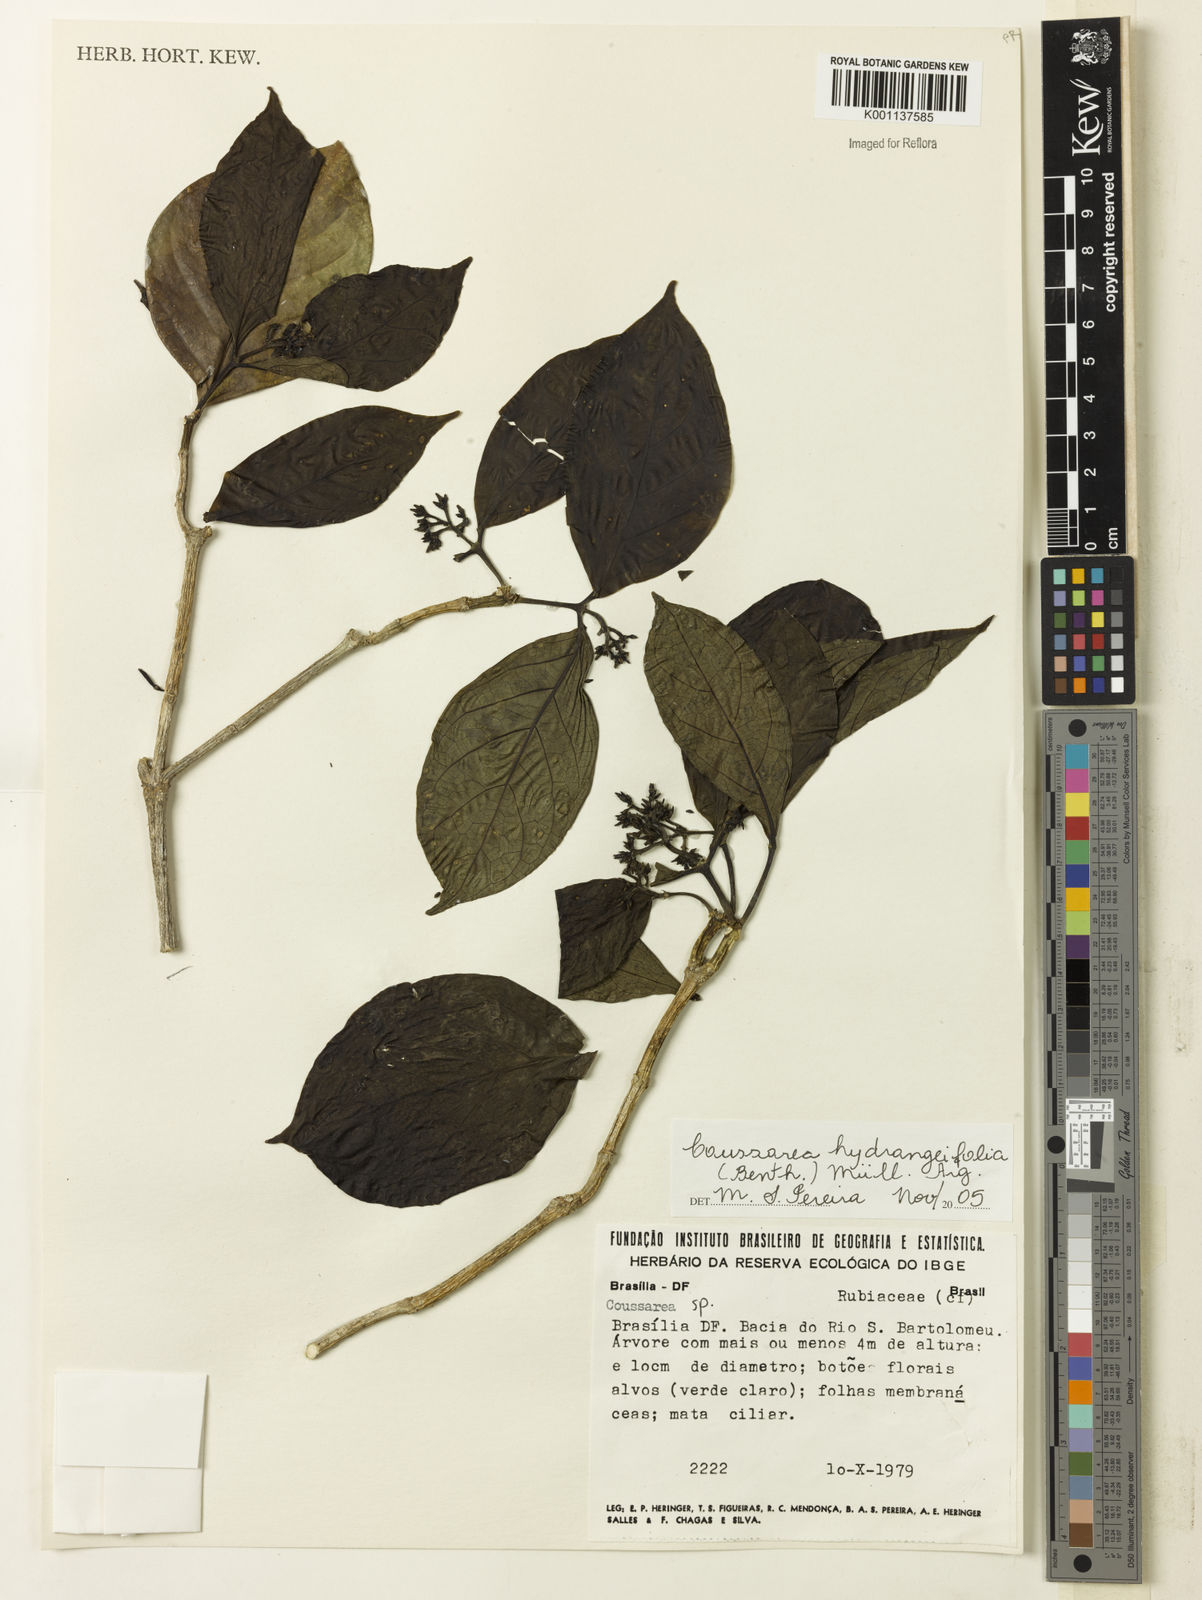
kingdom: Plantae
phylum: Tracheophyta
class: Magnoliopsida
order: Gentianales
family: Rubiaceae
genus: Coussarea
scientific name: Coussarea
